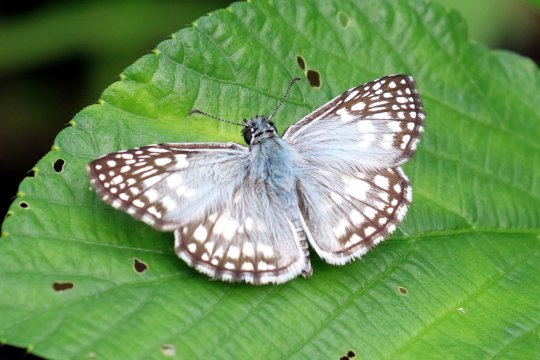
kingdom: Animalia
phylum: Arthropoda
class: Insecta
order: Lepidoptera
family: Hesperiidae
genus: Pyrgus
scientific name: Pyrgus oileus
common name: Orcus Checkered-Skipper
